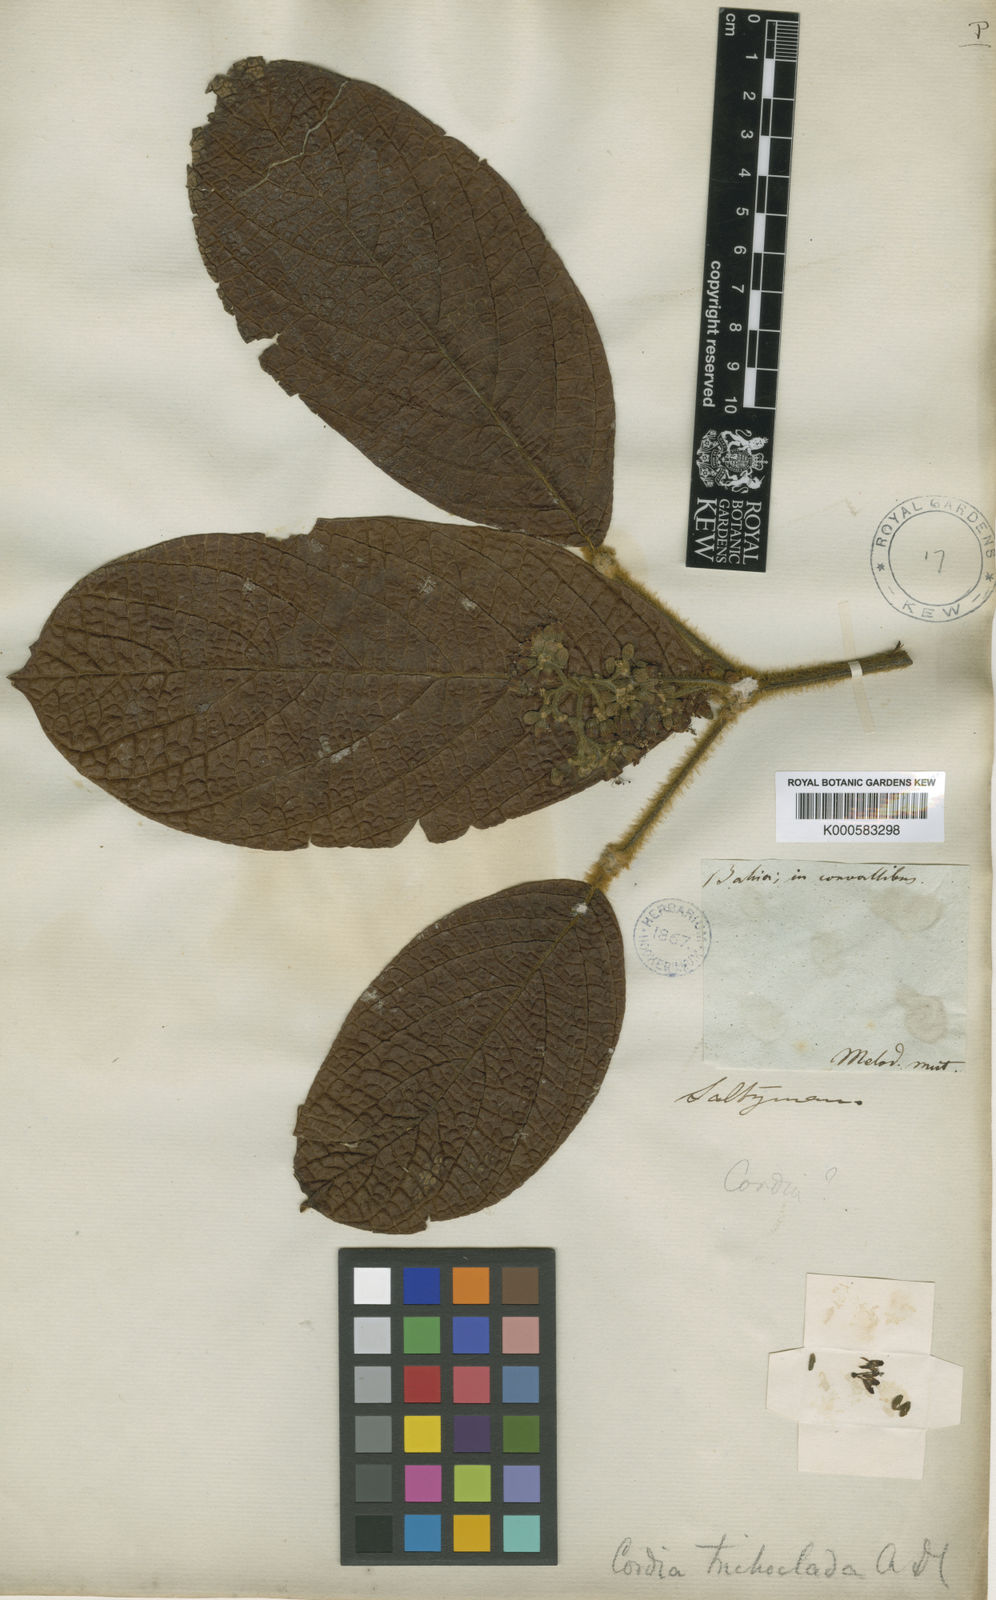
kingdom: Plantae
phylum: Tracheophyta
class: Magnoliopsida
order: Boraginales
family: Cordiaceae
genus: Cordia
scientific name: Cordia trichoclada
